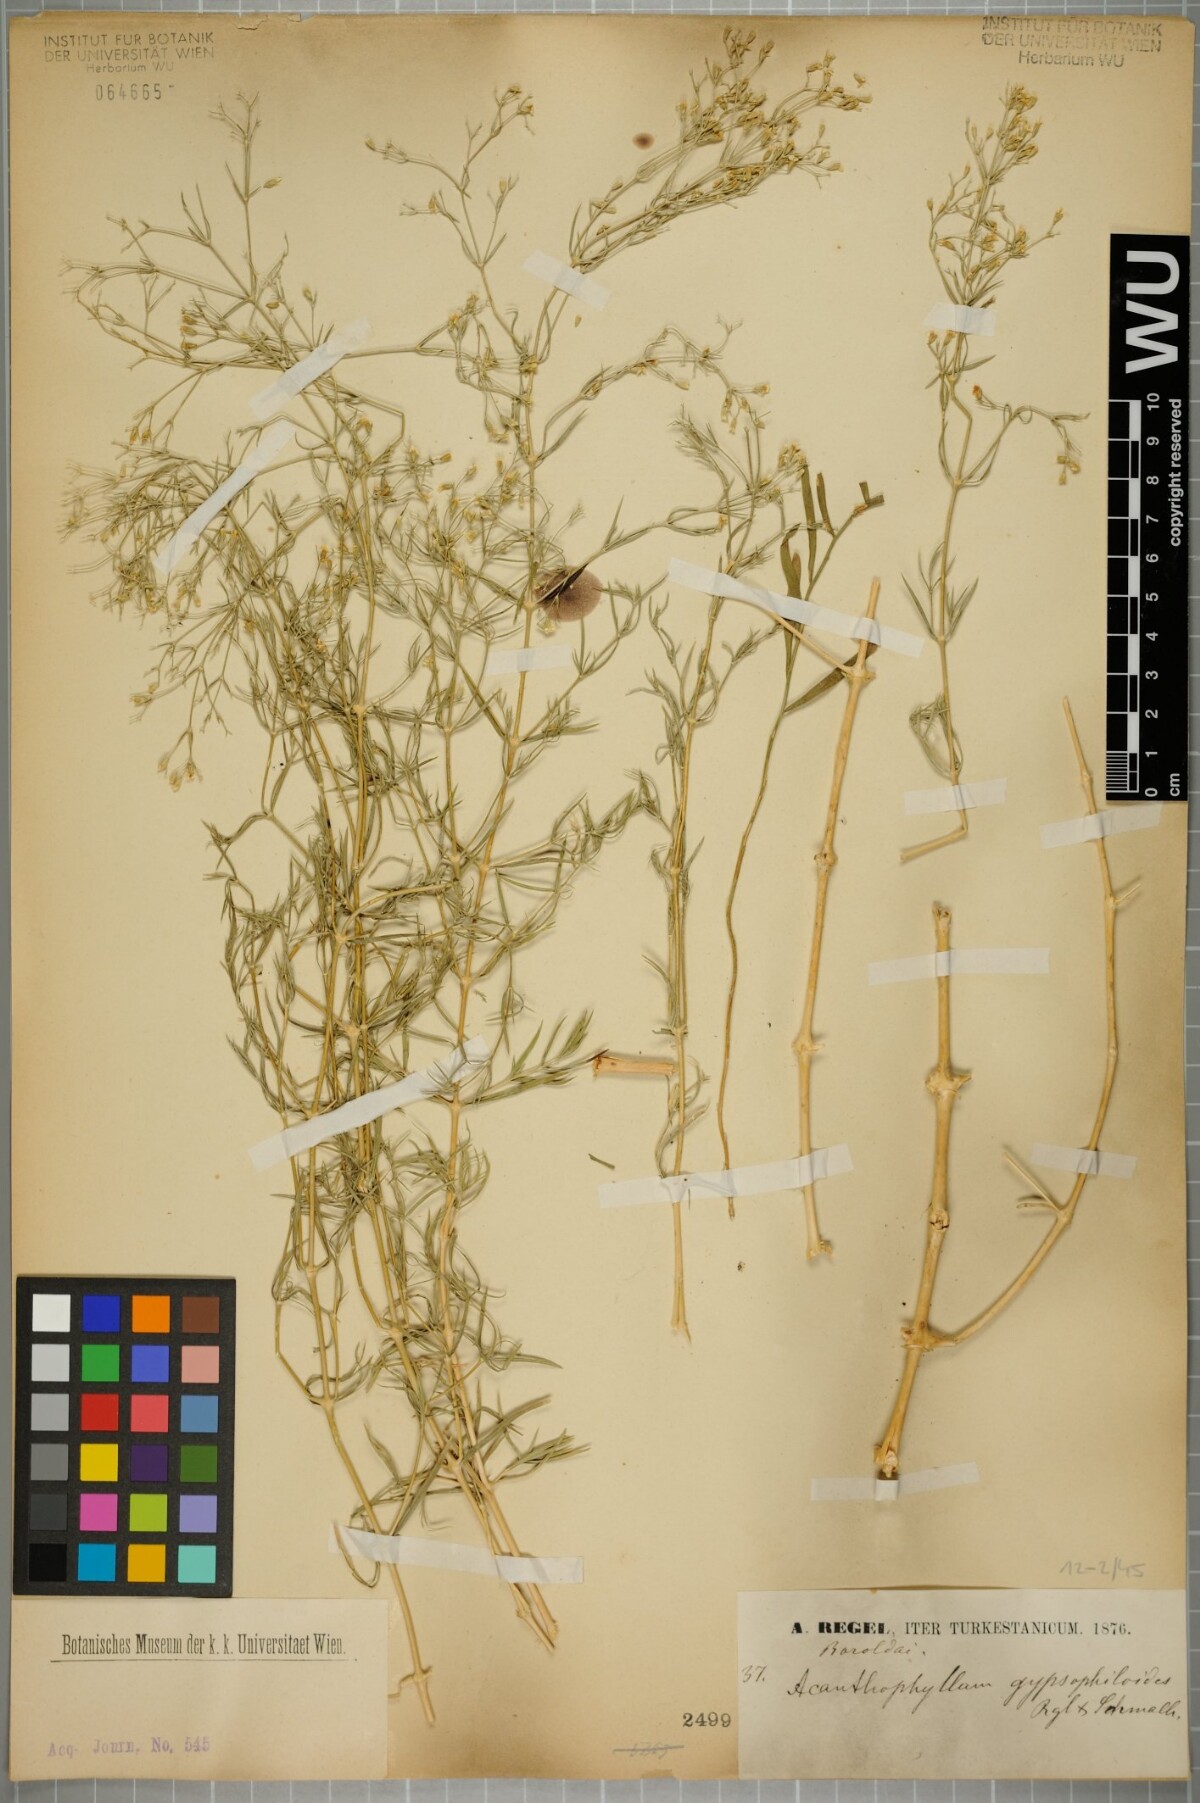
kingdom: Plantae
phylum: Tracheophyta
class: Magnoliopsida
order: Caryophyllales
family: Caryophyllaceae
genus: Acanthophyllum
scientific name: Acanthophyllum gypsophiloides
